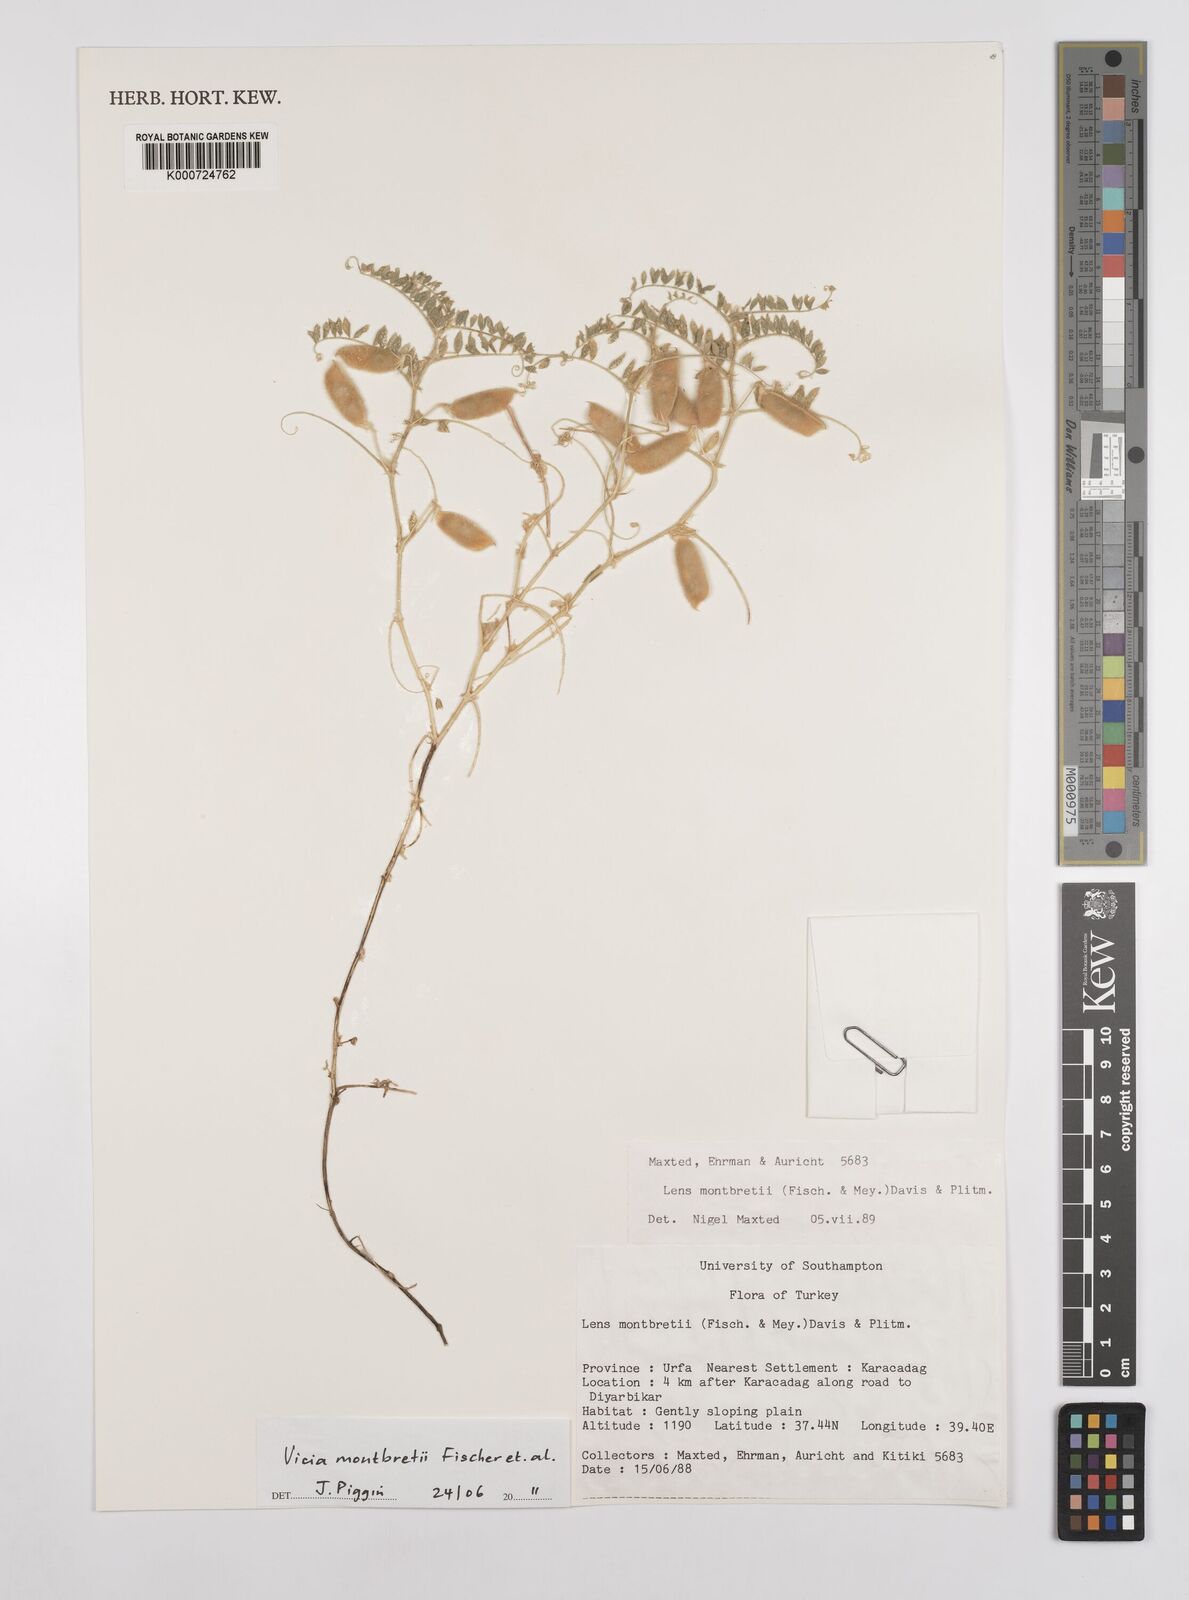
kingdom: Plantae
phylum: Tracheophyta
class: Magnoliopsida
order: Fabales
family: Fabaceae
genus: Vicia
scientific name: Vicia montbretii
